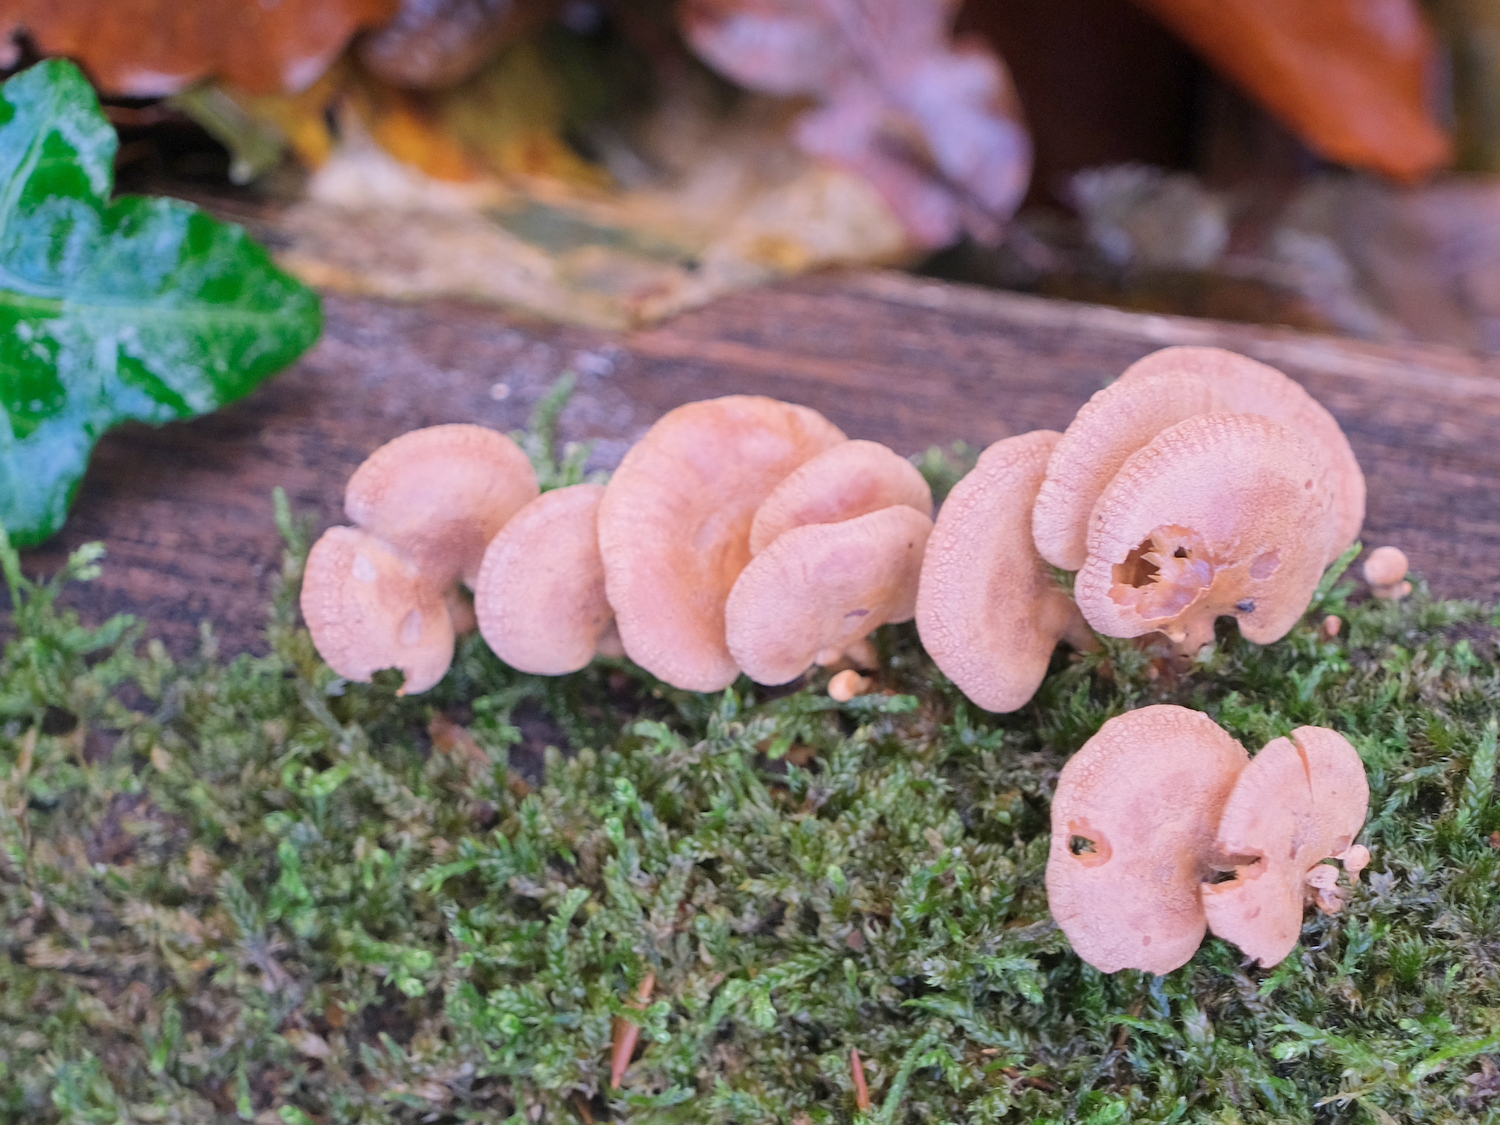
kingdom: Fungi
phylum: Basidiomycota
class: Agaricomycetes
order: Agaricales
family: Mycenaceae
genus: Panellus
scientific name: Panellus stipticus
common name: kliddet epaulethat
